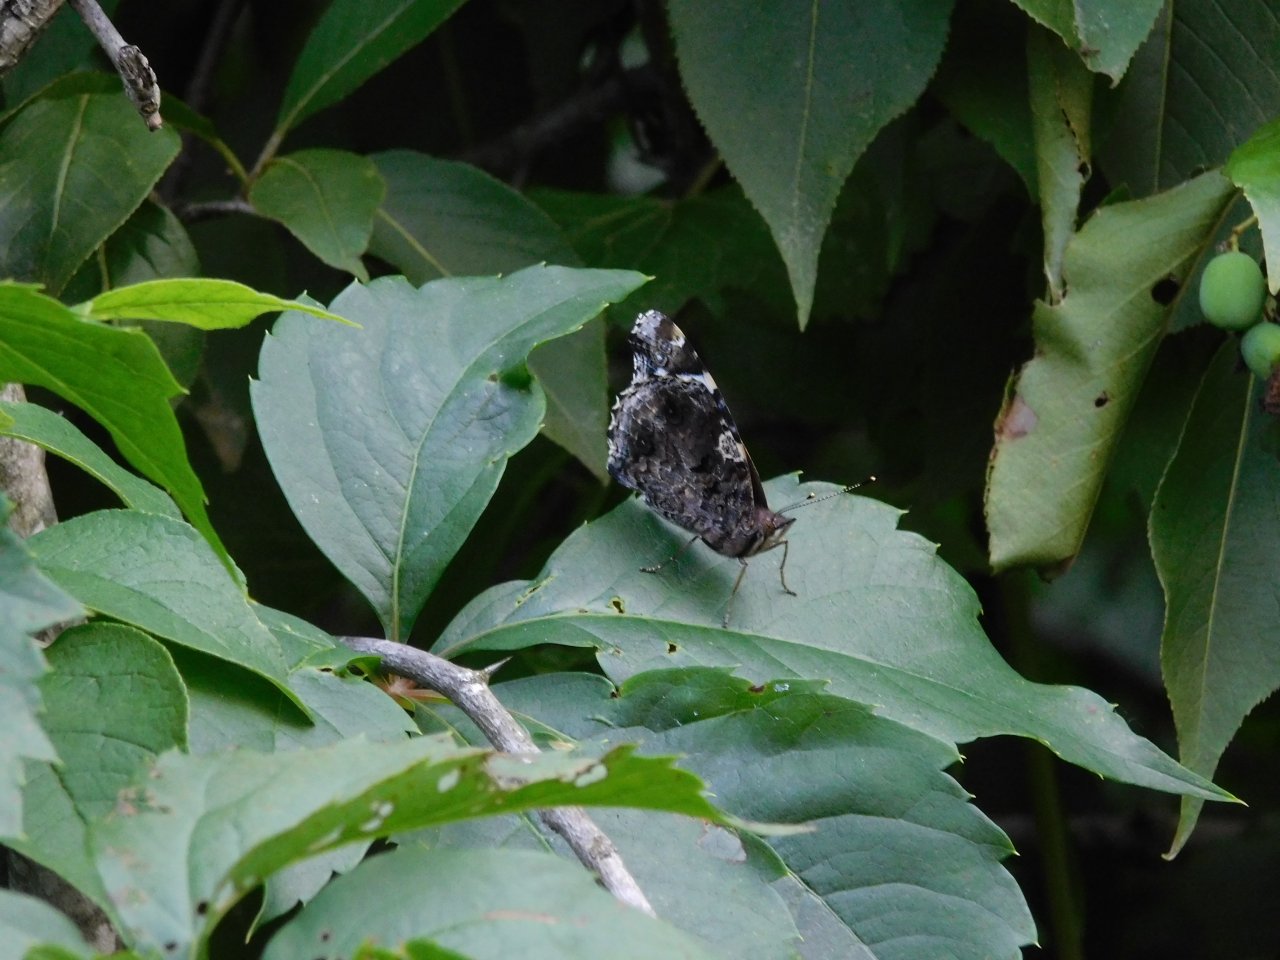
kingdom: Animalia
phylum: Arthropoda
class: Insecta
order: Lepidoptera
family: Nymphalidae
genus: Vanessa
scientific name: Vanessa atalanta
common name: Red Admiral
